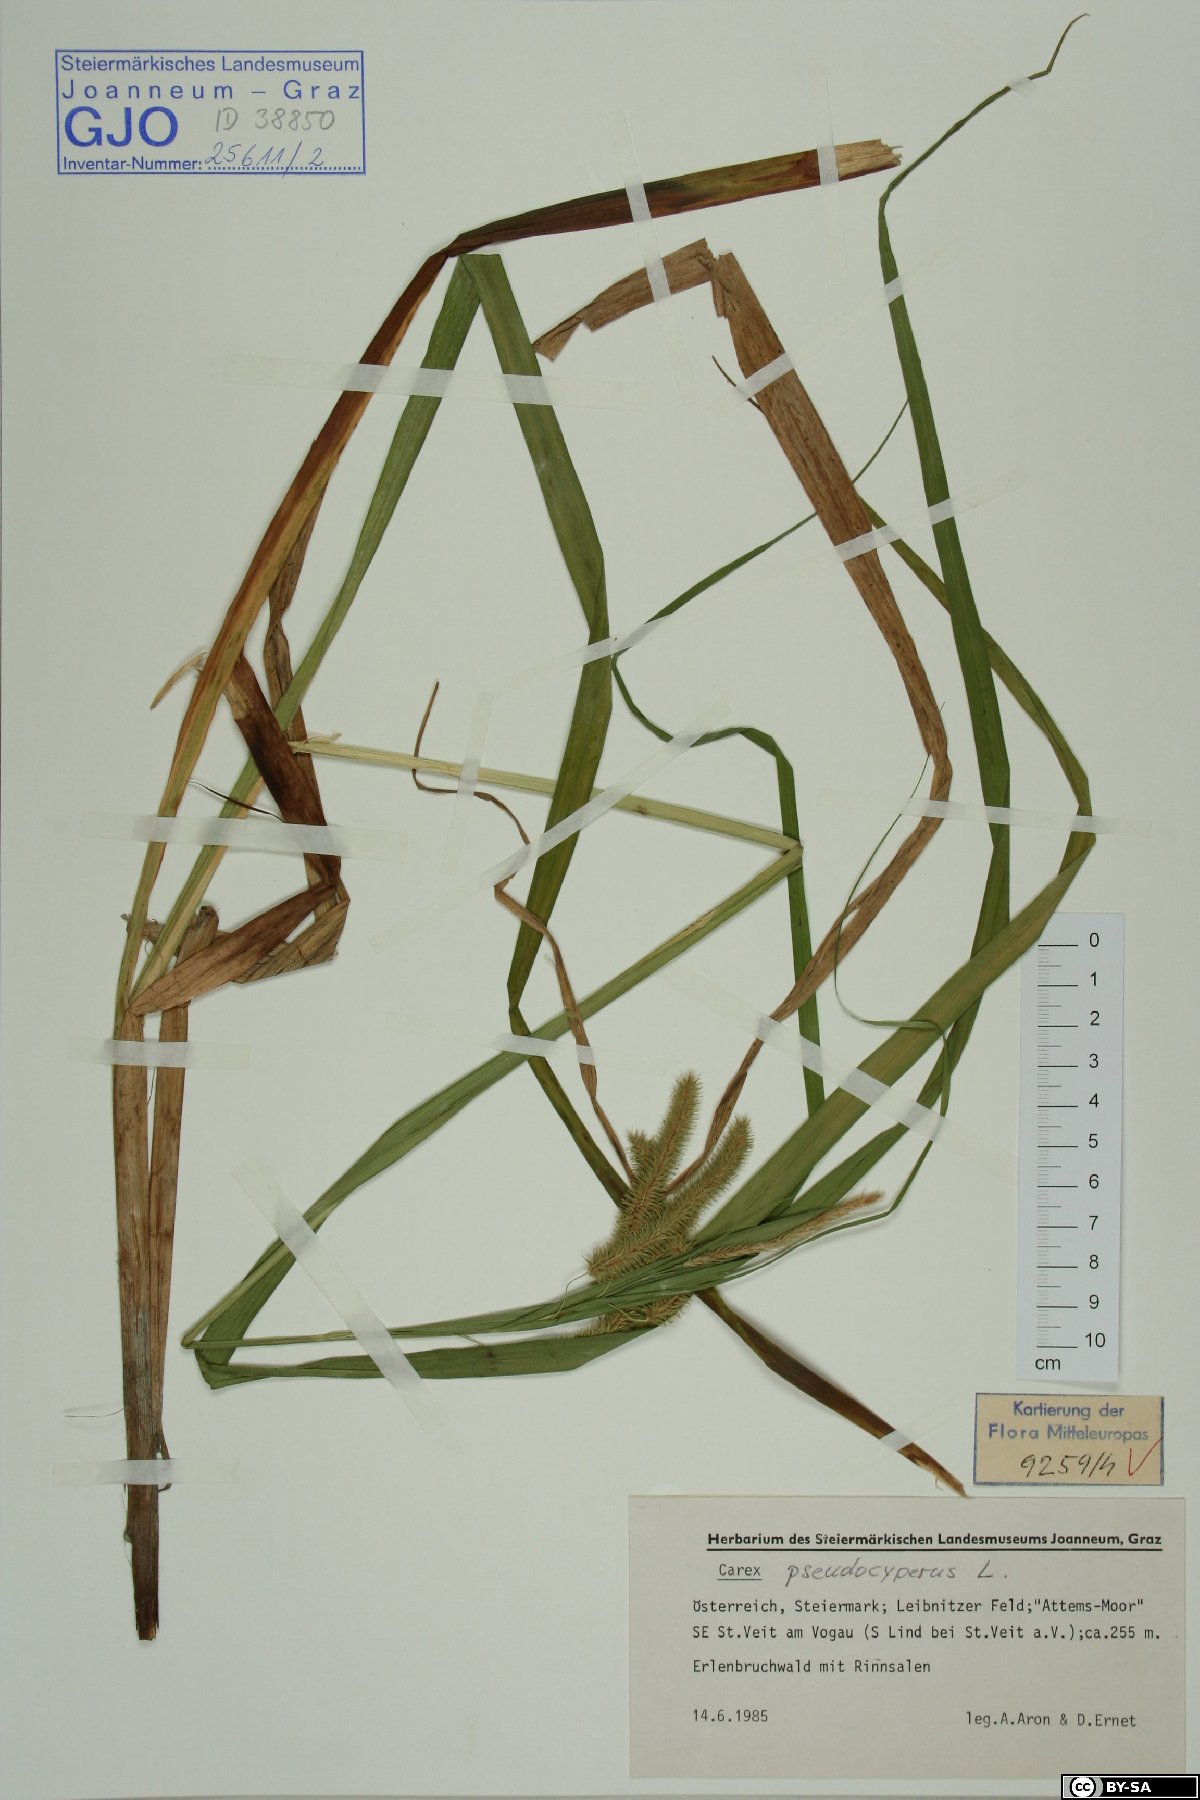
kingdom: Plantae
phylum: Tracheophyta
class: Liliopsida
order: Poales
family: Cyperaceae
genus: Carex
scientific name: Carex pseudocyperus
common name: Cyperus sedge
